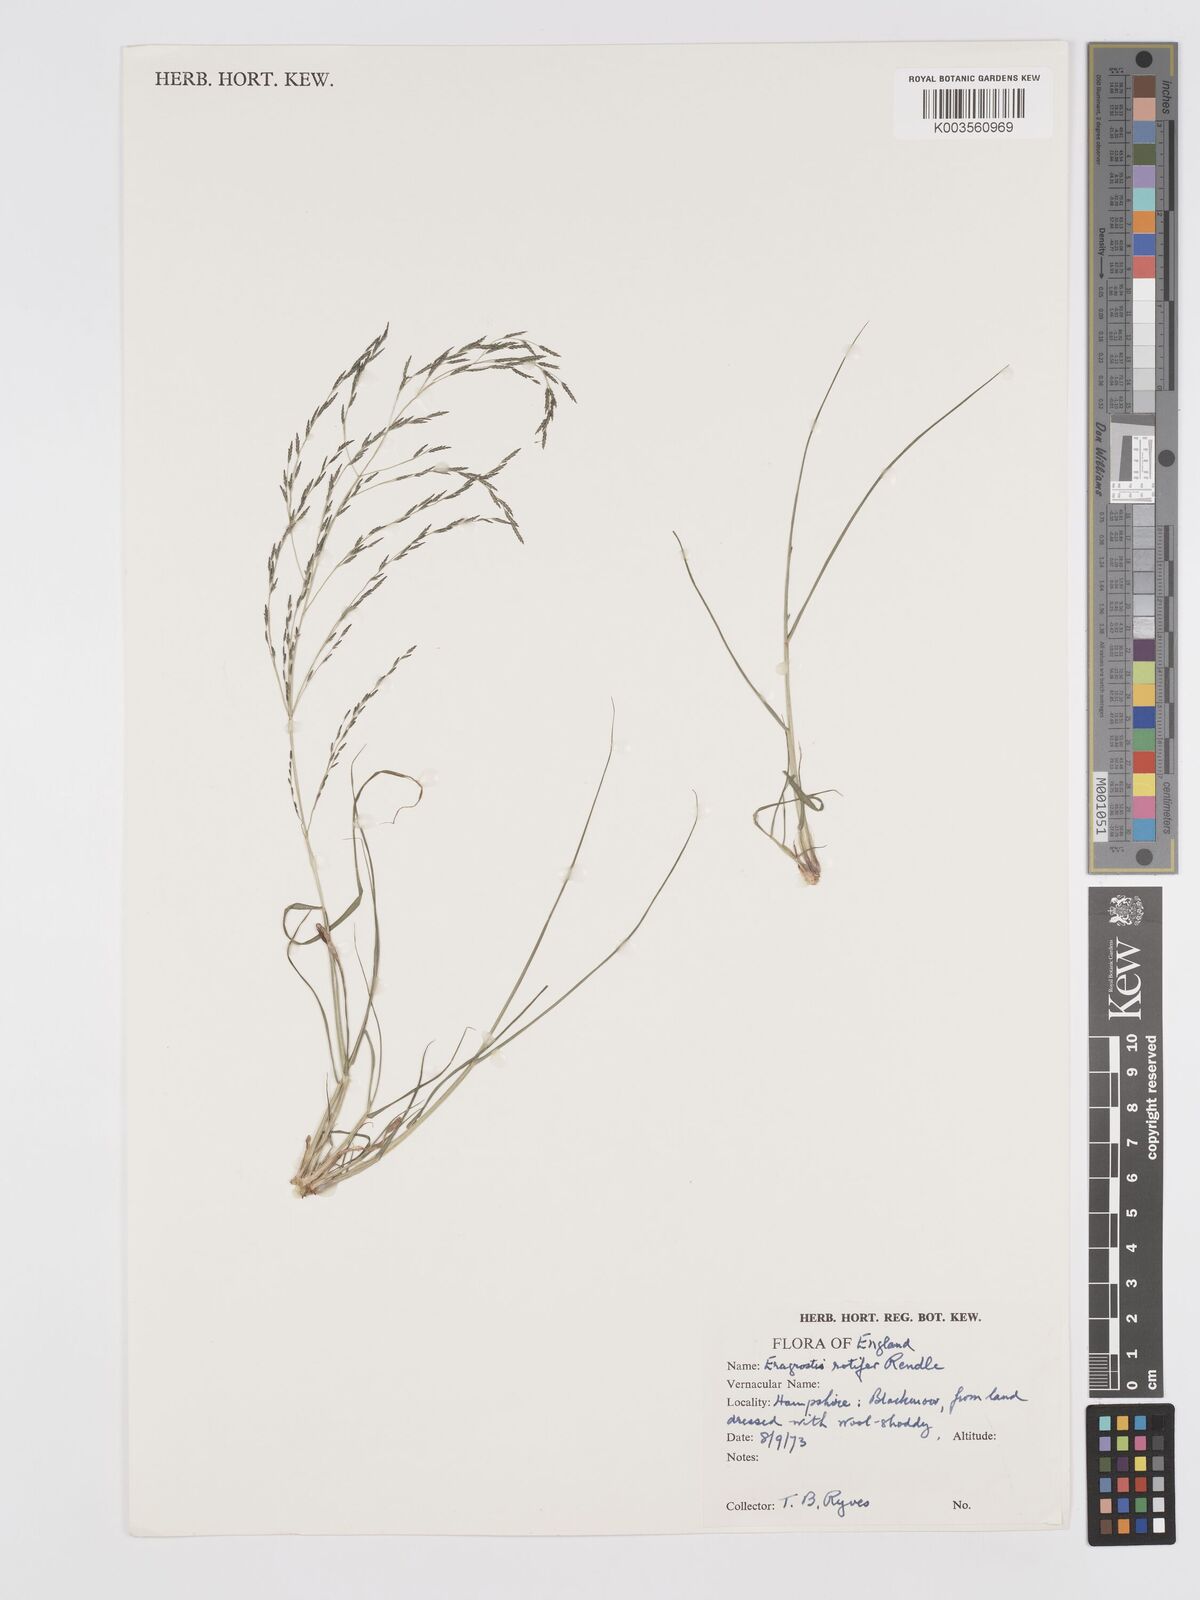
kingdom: Plantae
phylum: Tracheophyta
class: Liliopsida
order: Poales
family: Poaceae
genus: Eragrostis
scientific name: Eragrostis rotifer
